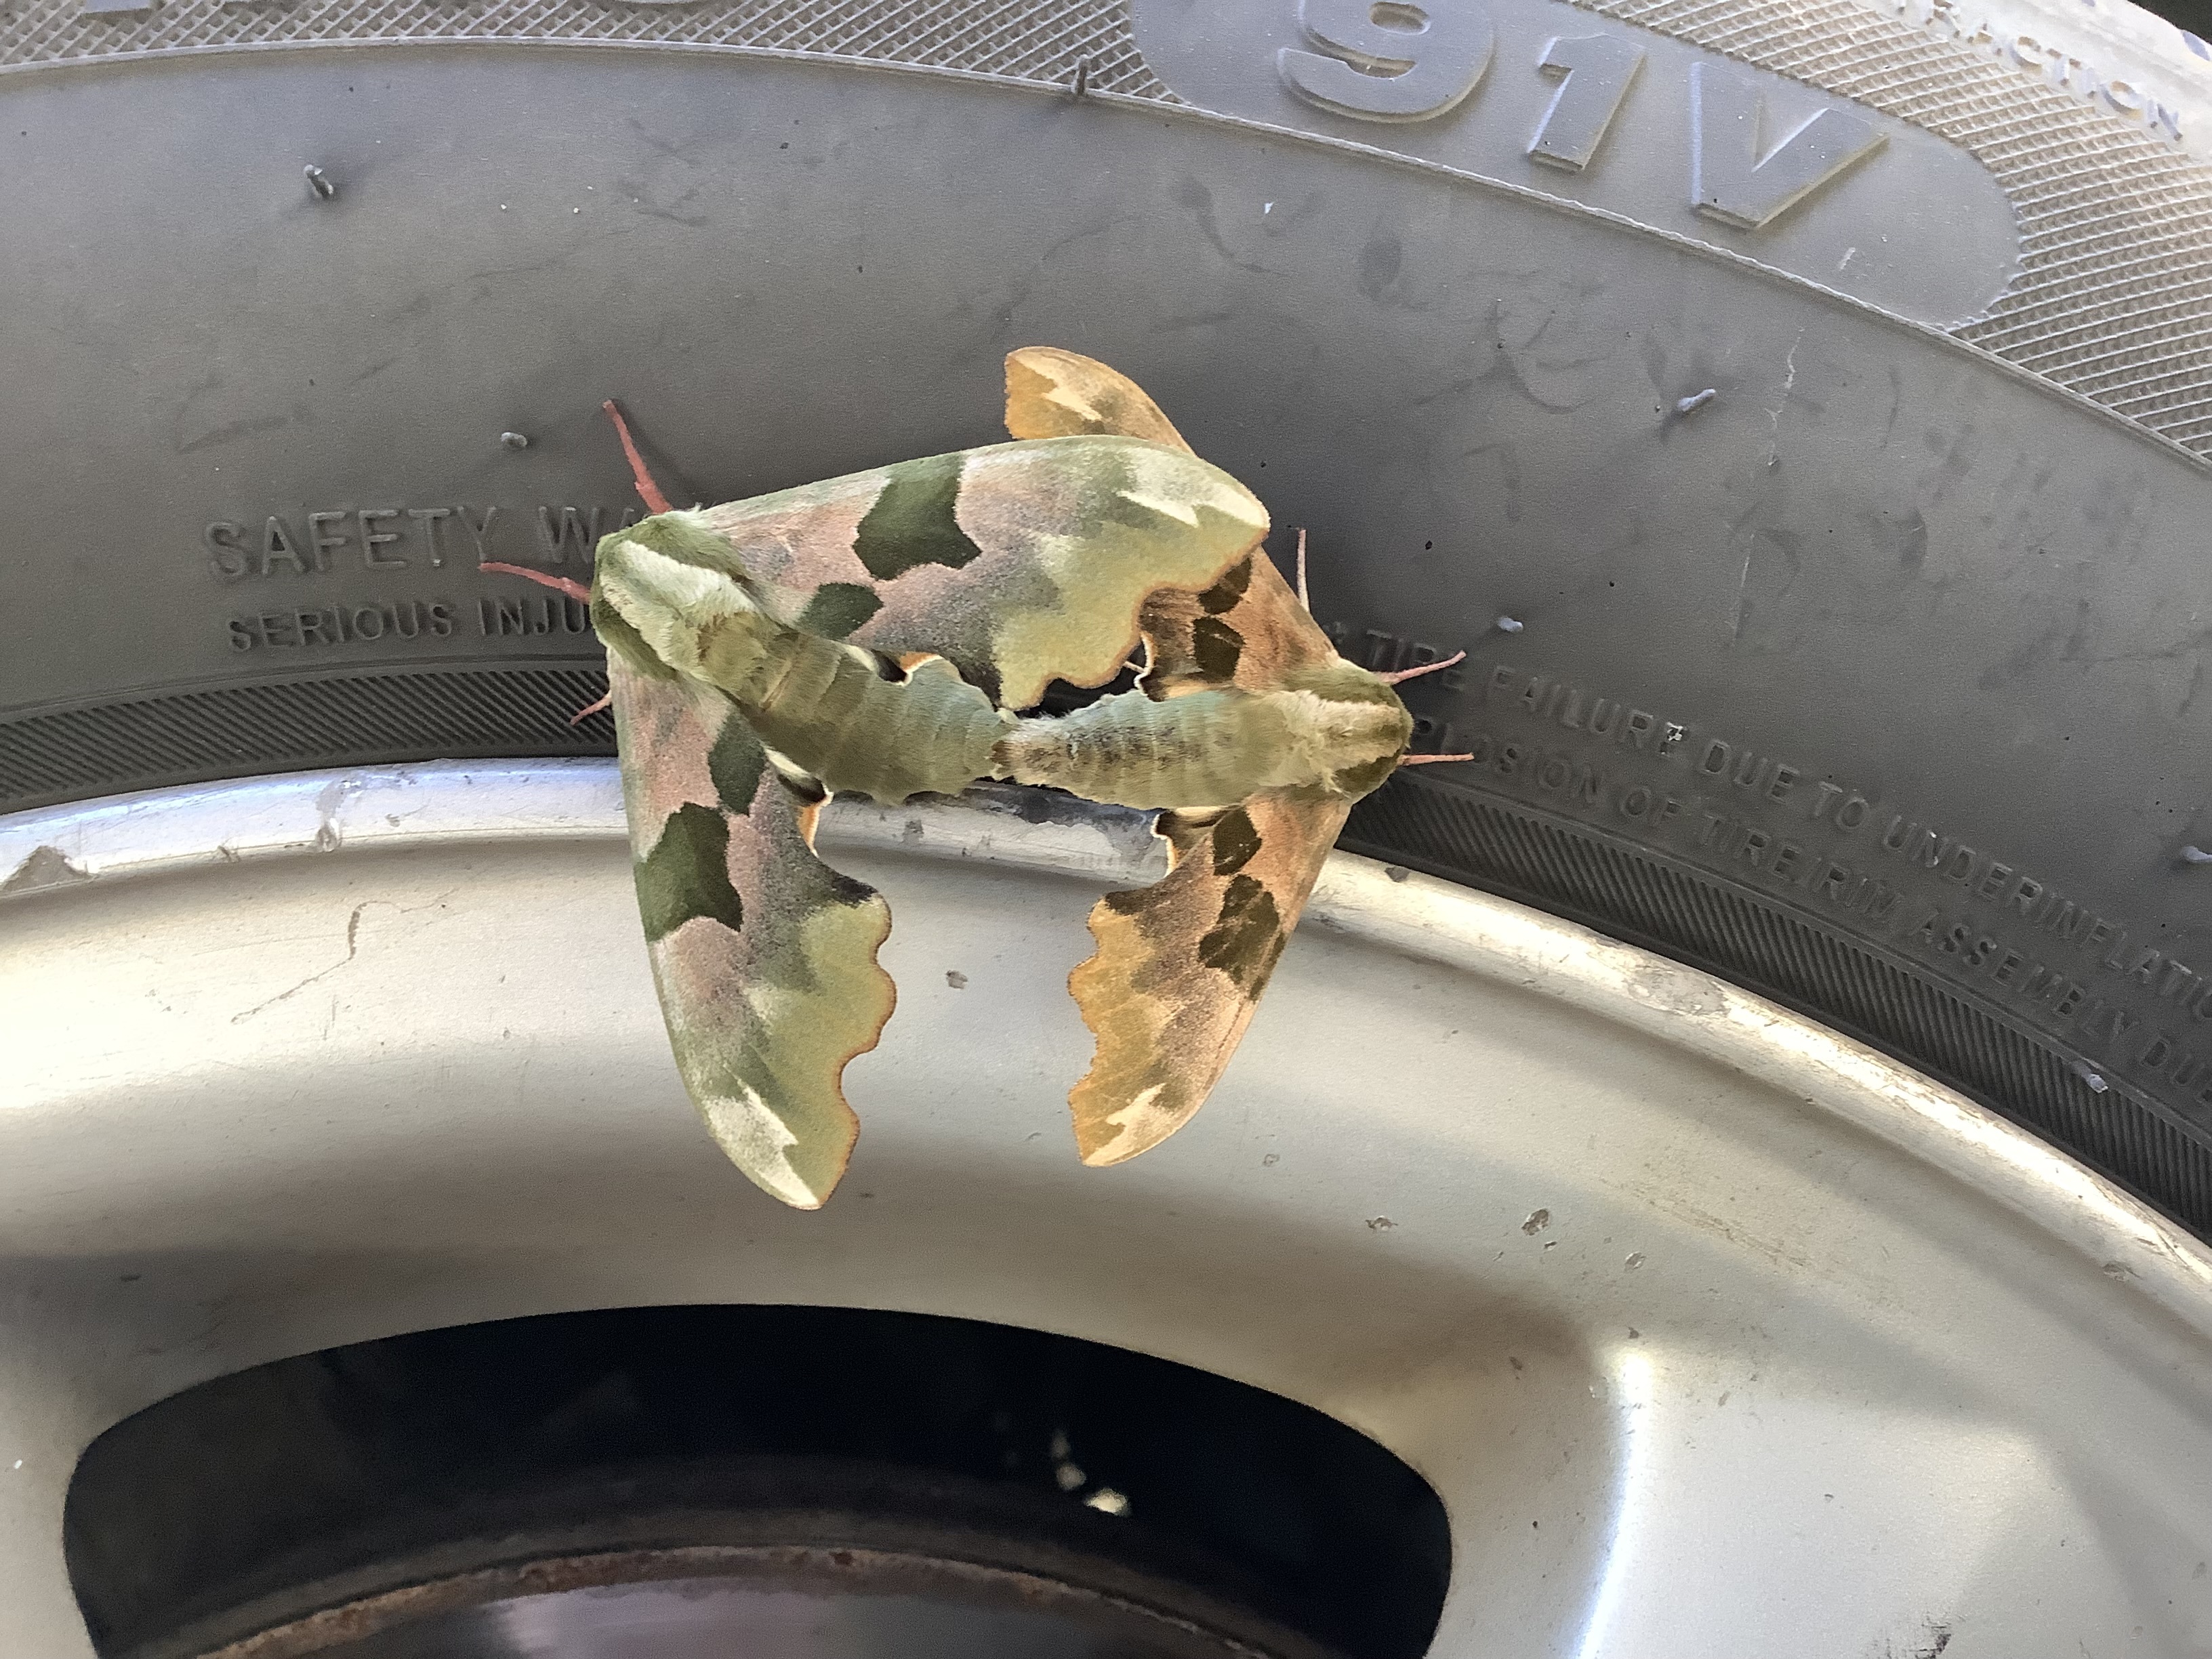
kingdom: Animalia
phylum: Arthropoda
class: Insecta
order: Lepidoptera
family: Sphingidae
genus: Mimas
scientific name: Mimas tiliae
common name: Lime hawk-moth
